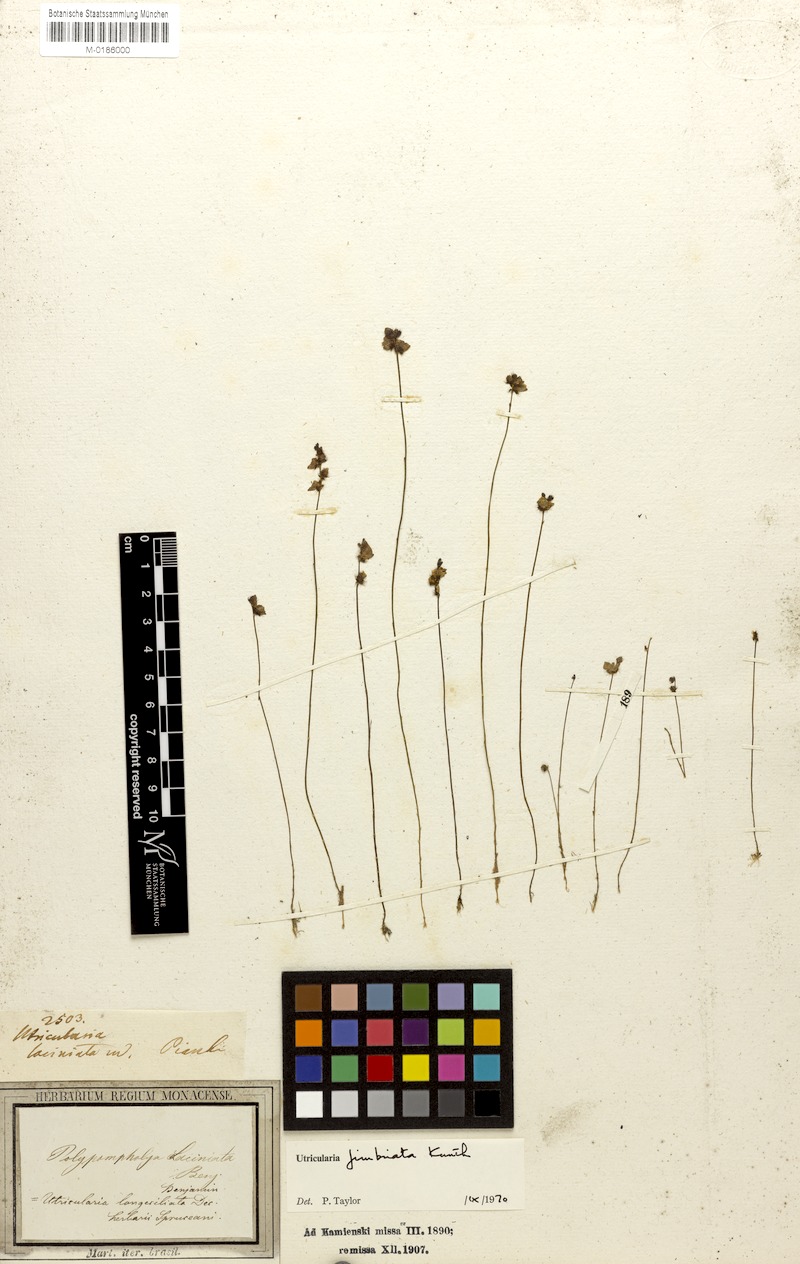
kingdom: Plantae
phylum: Tracheophyta
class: Magnoliopsida
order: Lamiales
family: Lentibulariaceae
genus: Utricularia
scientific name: Utricularia simulans
